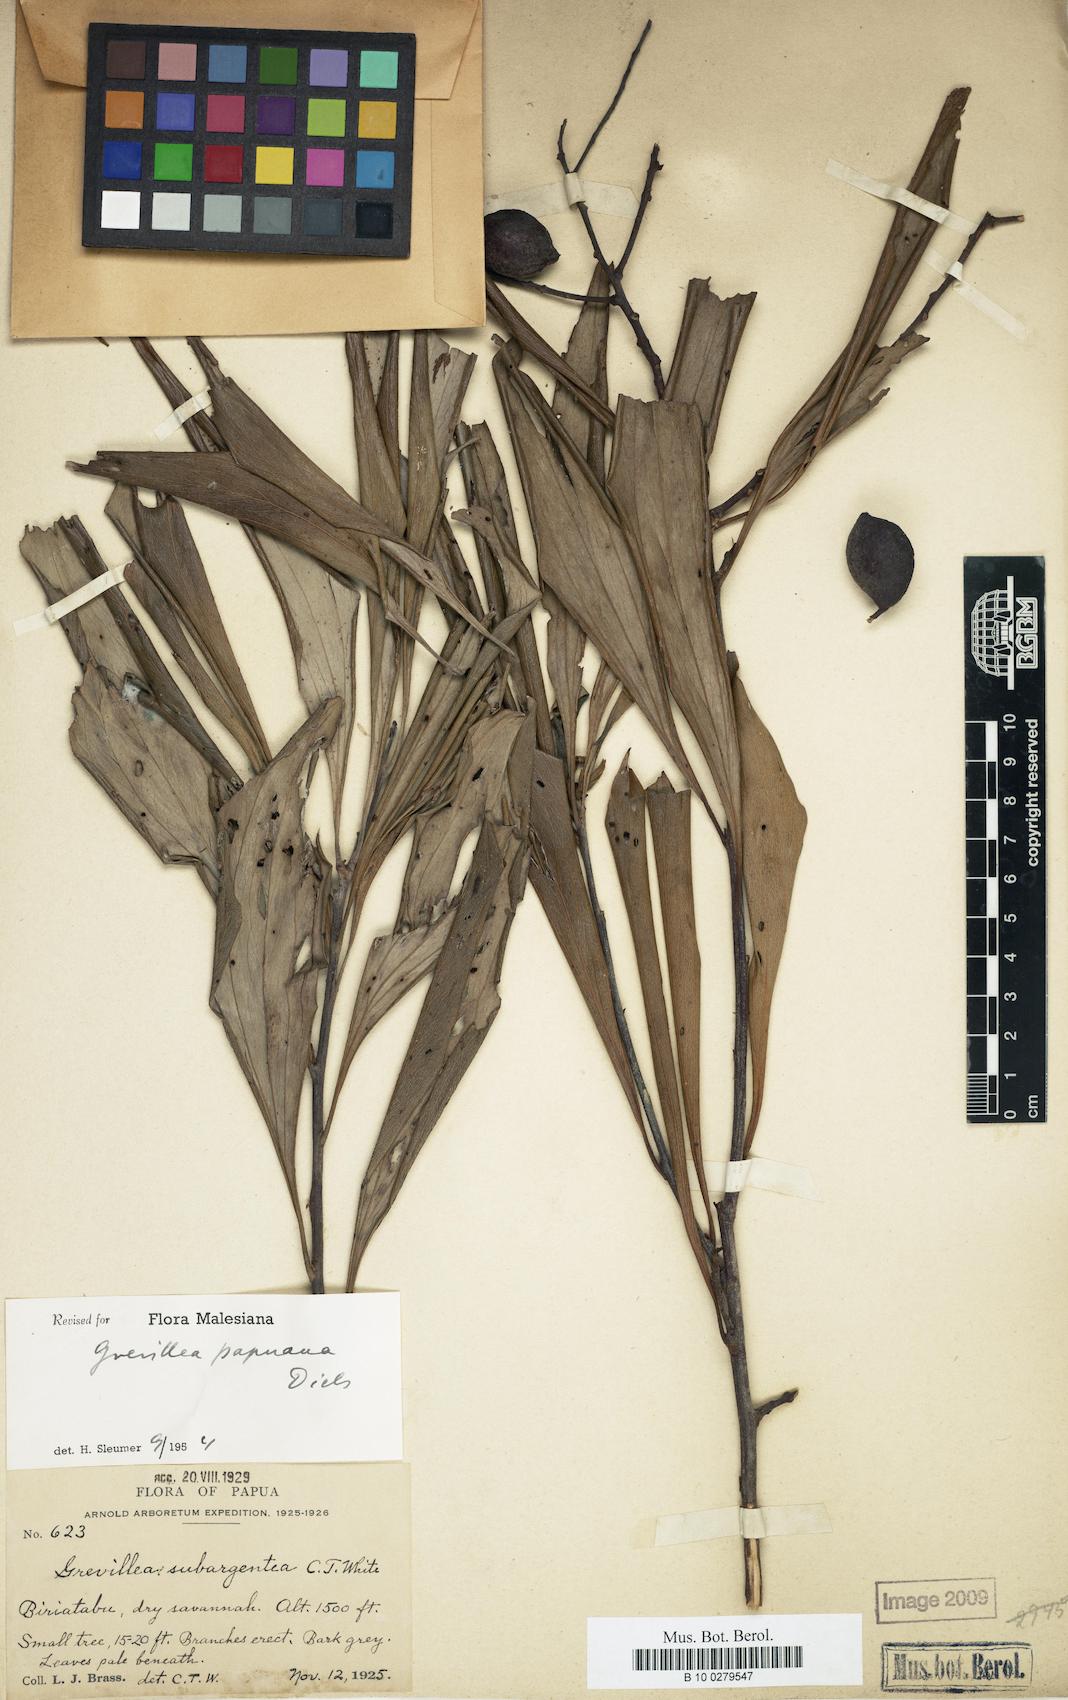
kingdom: Plantae
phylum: Tracheophyta
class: Magnoliopsida
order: Proteales
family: Proteaceae
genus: Grevillea
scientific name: Grevillea papuana
